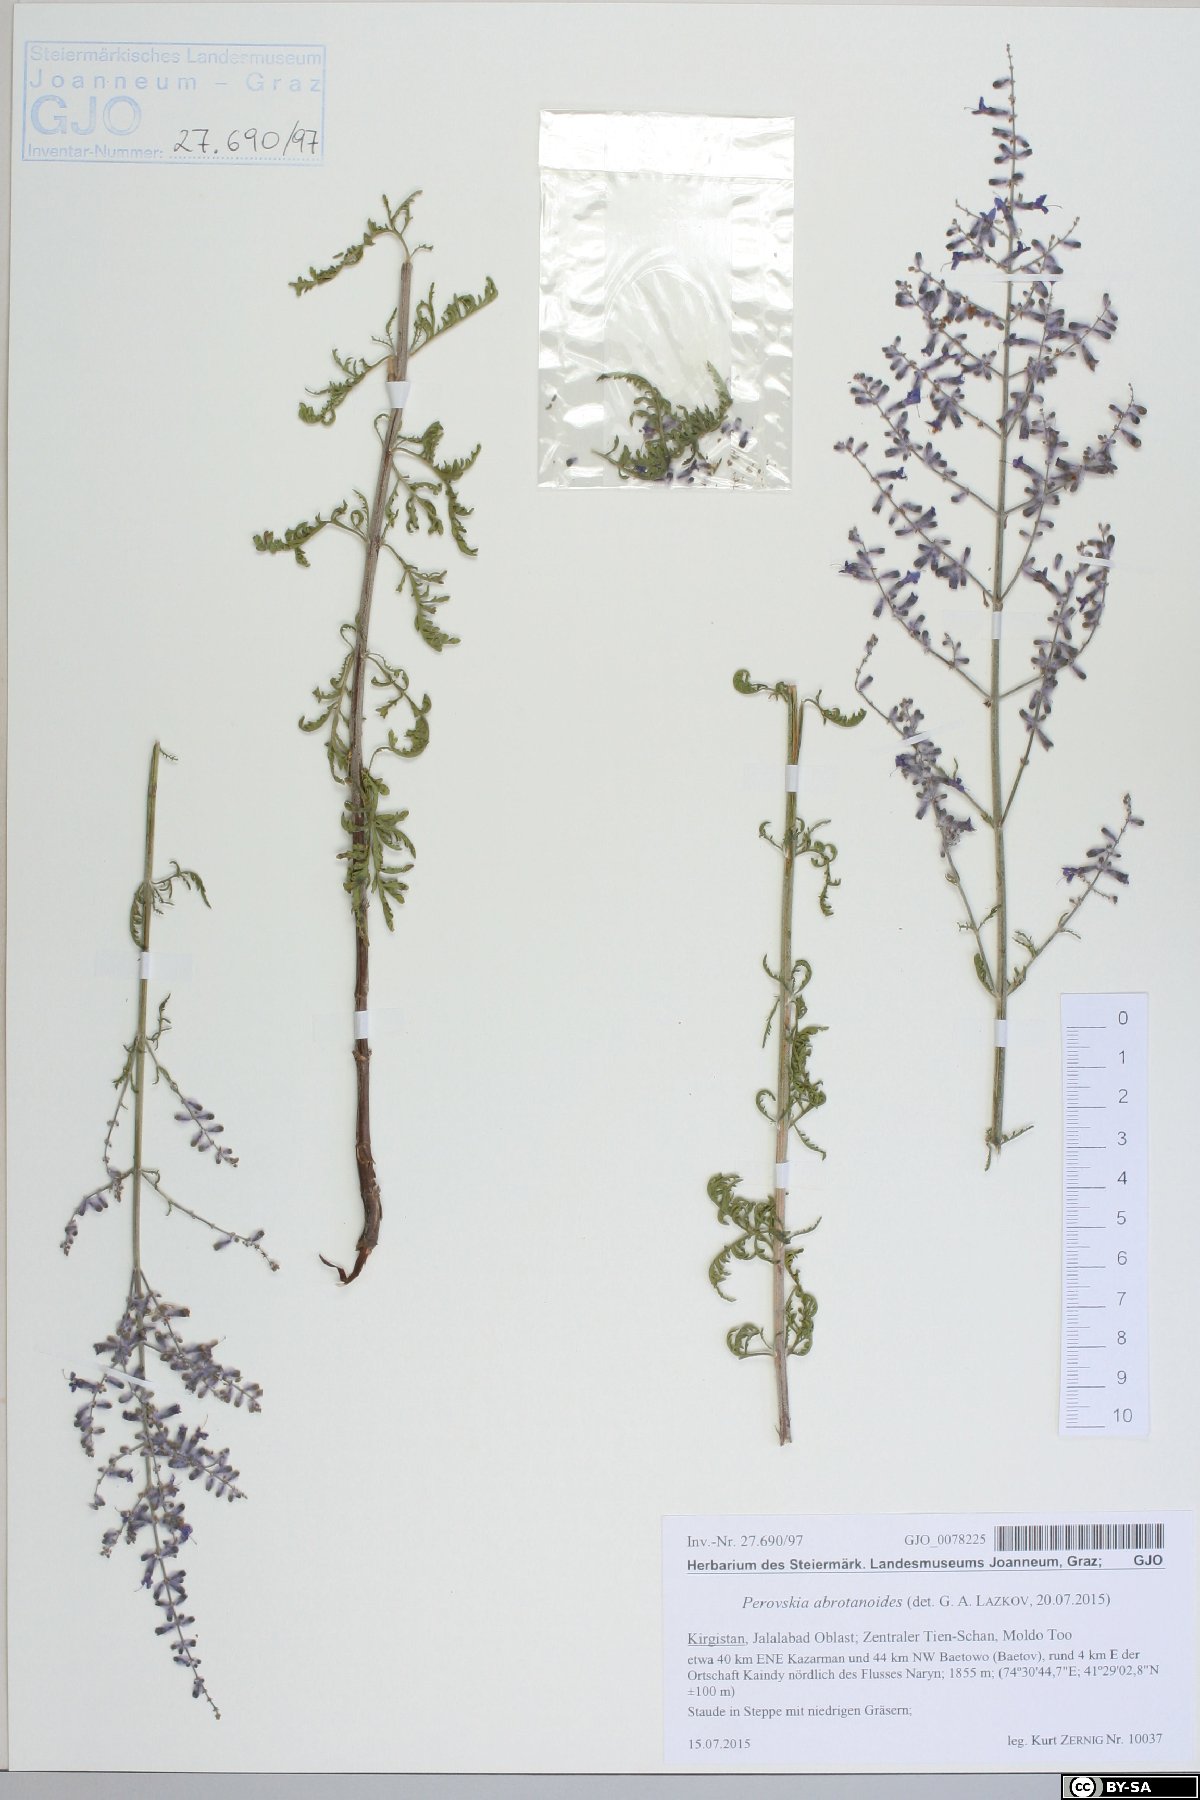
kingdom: Plantae
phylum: Tracheophyta
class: Magnoliopsida
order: Lamiales
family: Lamiaceae
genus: Salvia
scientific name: Salvia abrotanoides
